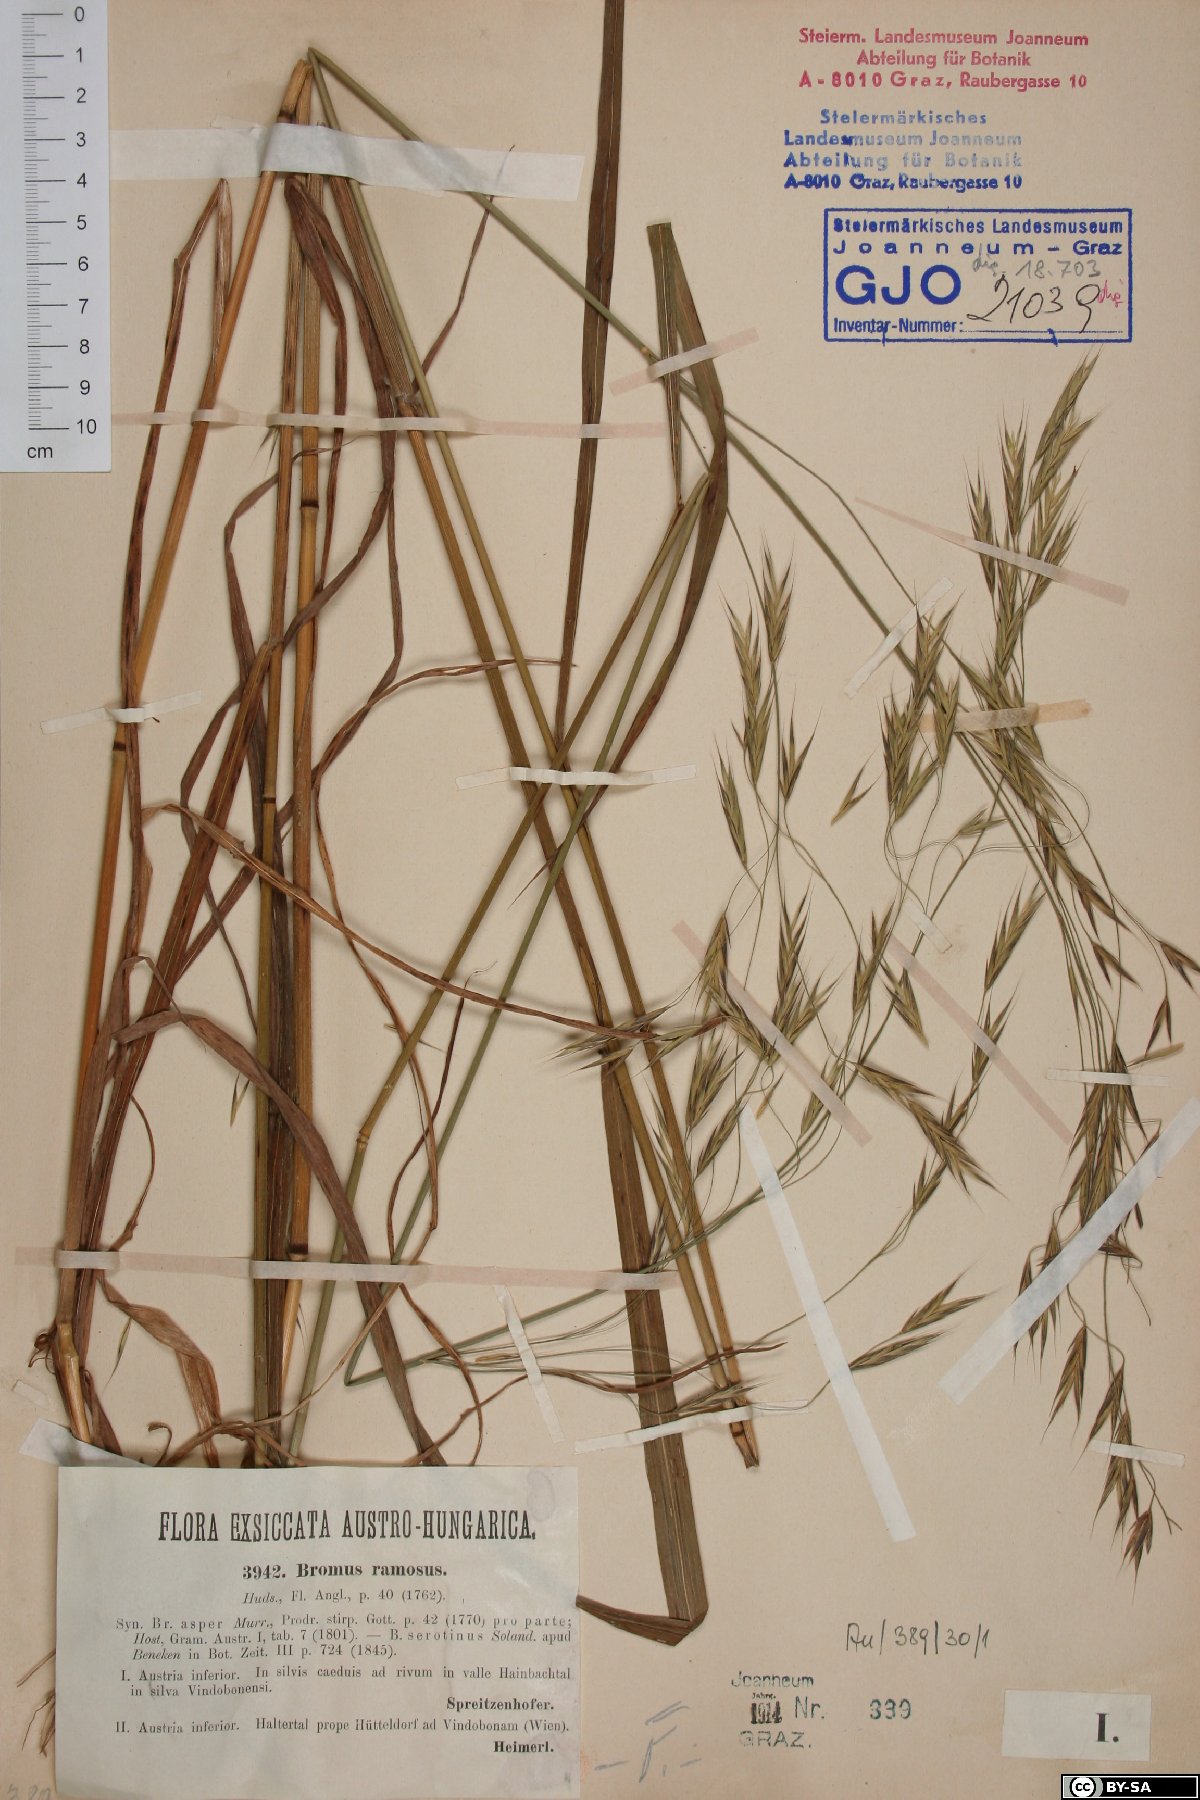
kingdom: Plantae
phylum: Tracheophyta
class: Liliopsida
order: Poales
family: Poaceae
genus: Bromus
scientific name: Bromus ramosus
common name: Hairy brome
